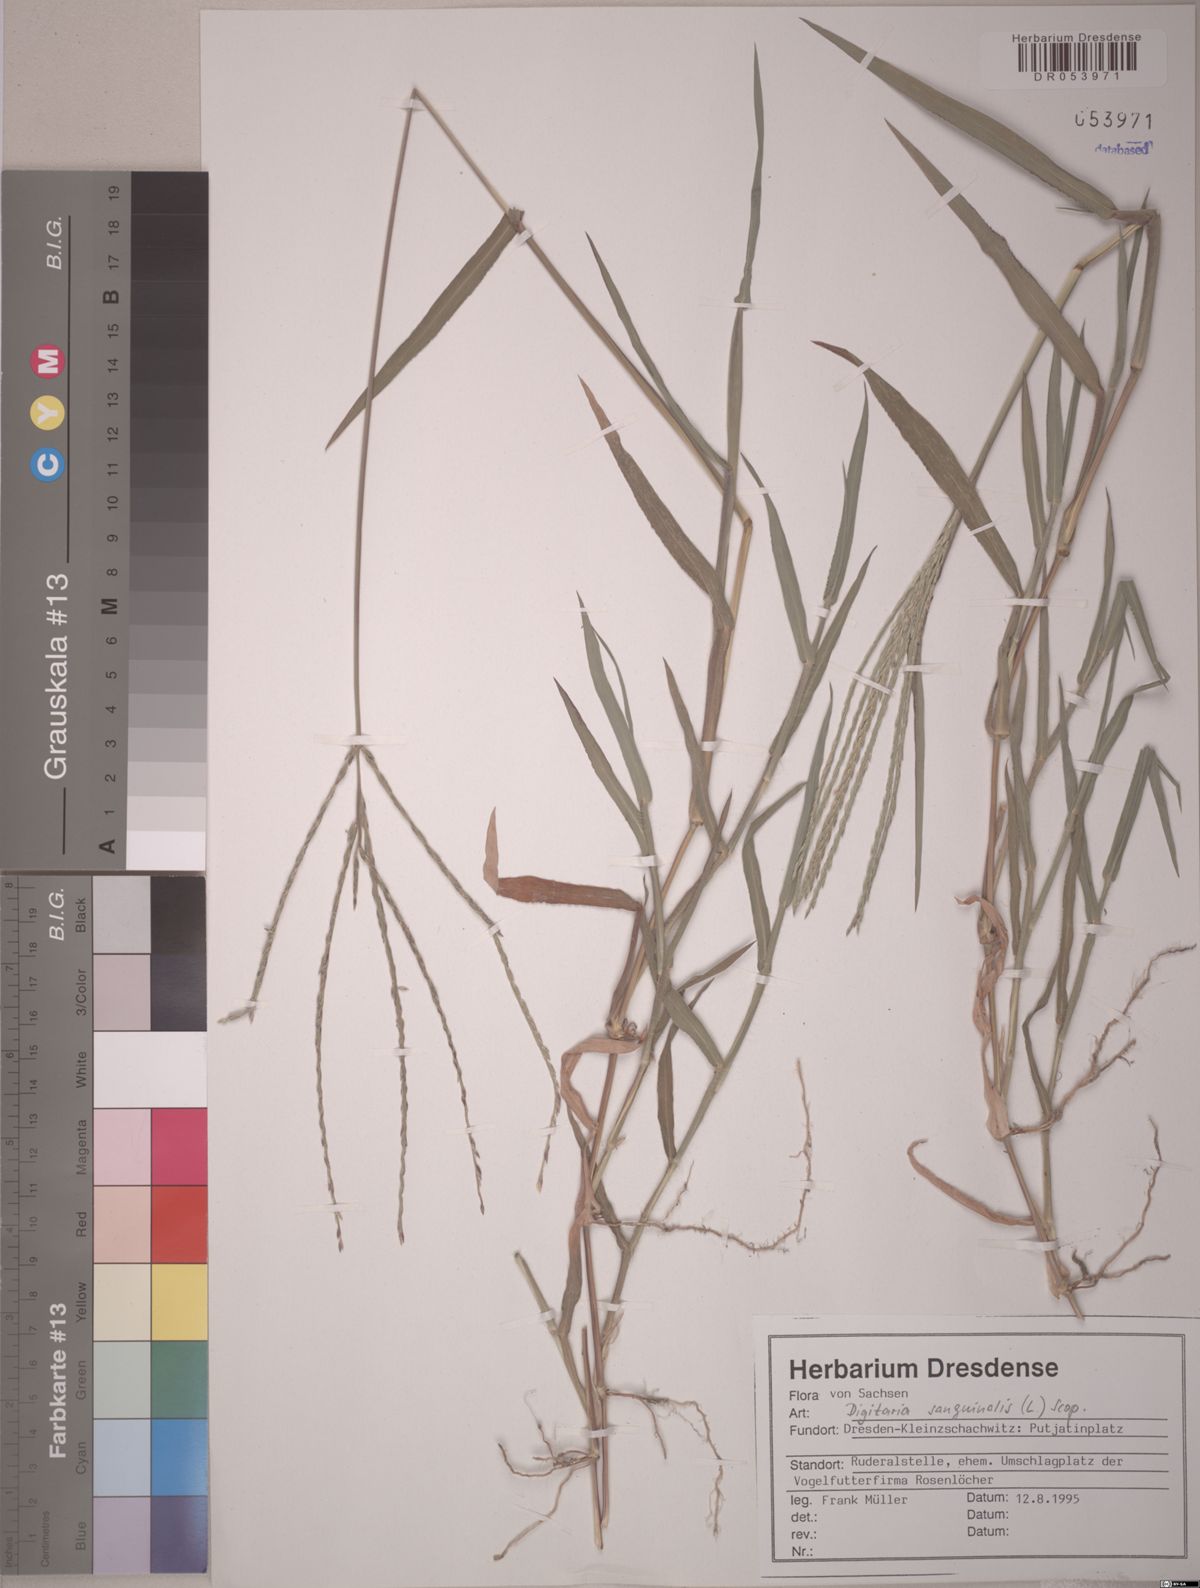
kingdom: Plantae
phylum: Tracheophyta
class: Liliopsida
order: Poales
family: Poaceae
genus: Digitaria
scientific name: Digitaria sanguinalis
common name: Hairy crabgrass
